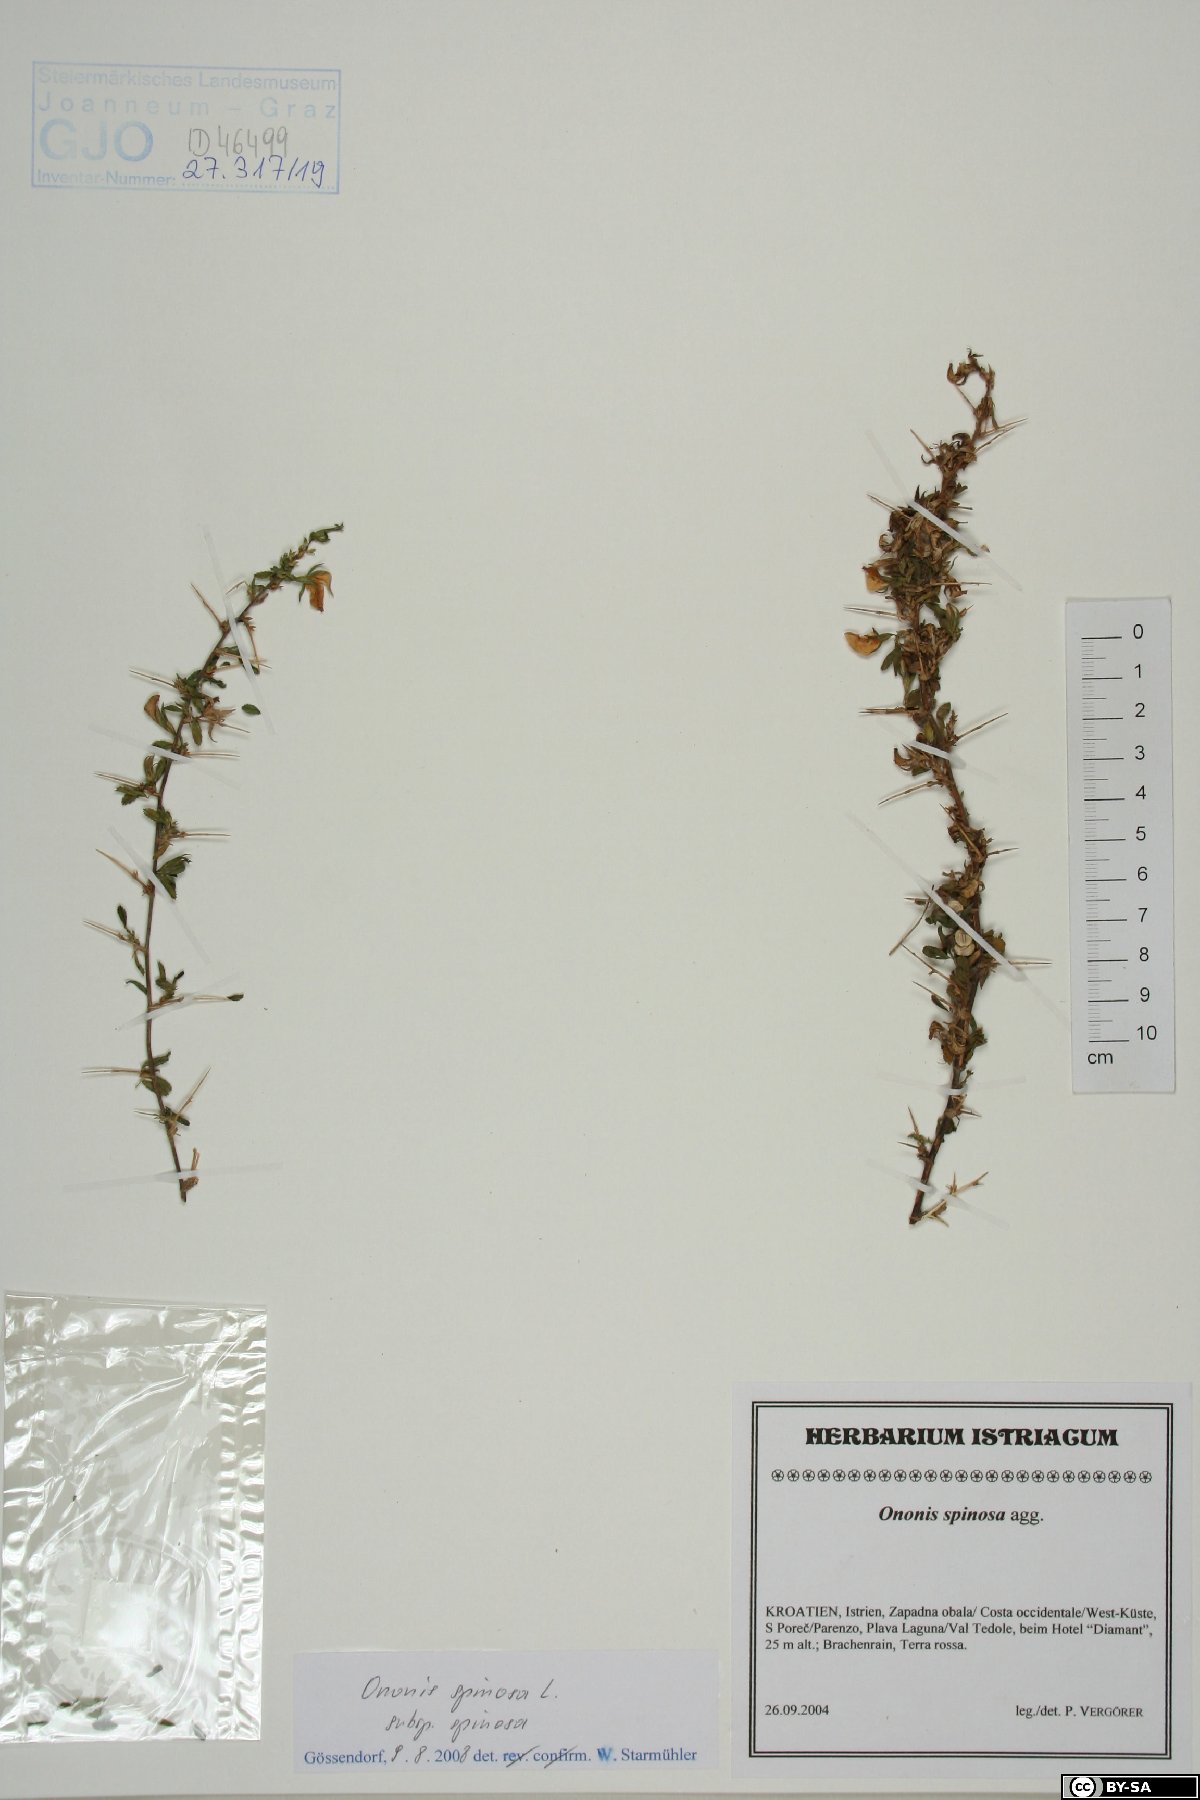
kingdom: Plantae
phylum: Tracheophyta
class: Magnoliopsida
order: Fabales
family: Fabaceae
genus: Ononis
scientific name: Ononis spinosa
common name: Spiny restharrow
